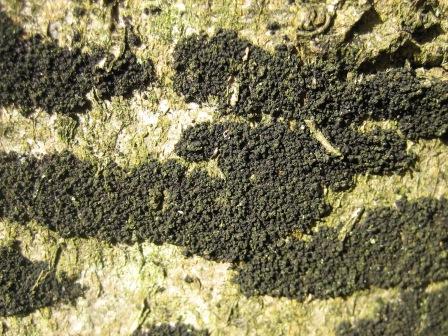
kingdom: Fungi
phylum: Ascomycota
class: Leotiomycetes
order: Rhytismatales
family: Ascodichaenaceae
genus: Ascodichaena
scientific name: Ascodichaena rugosa
